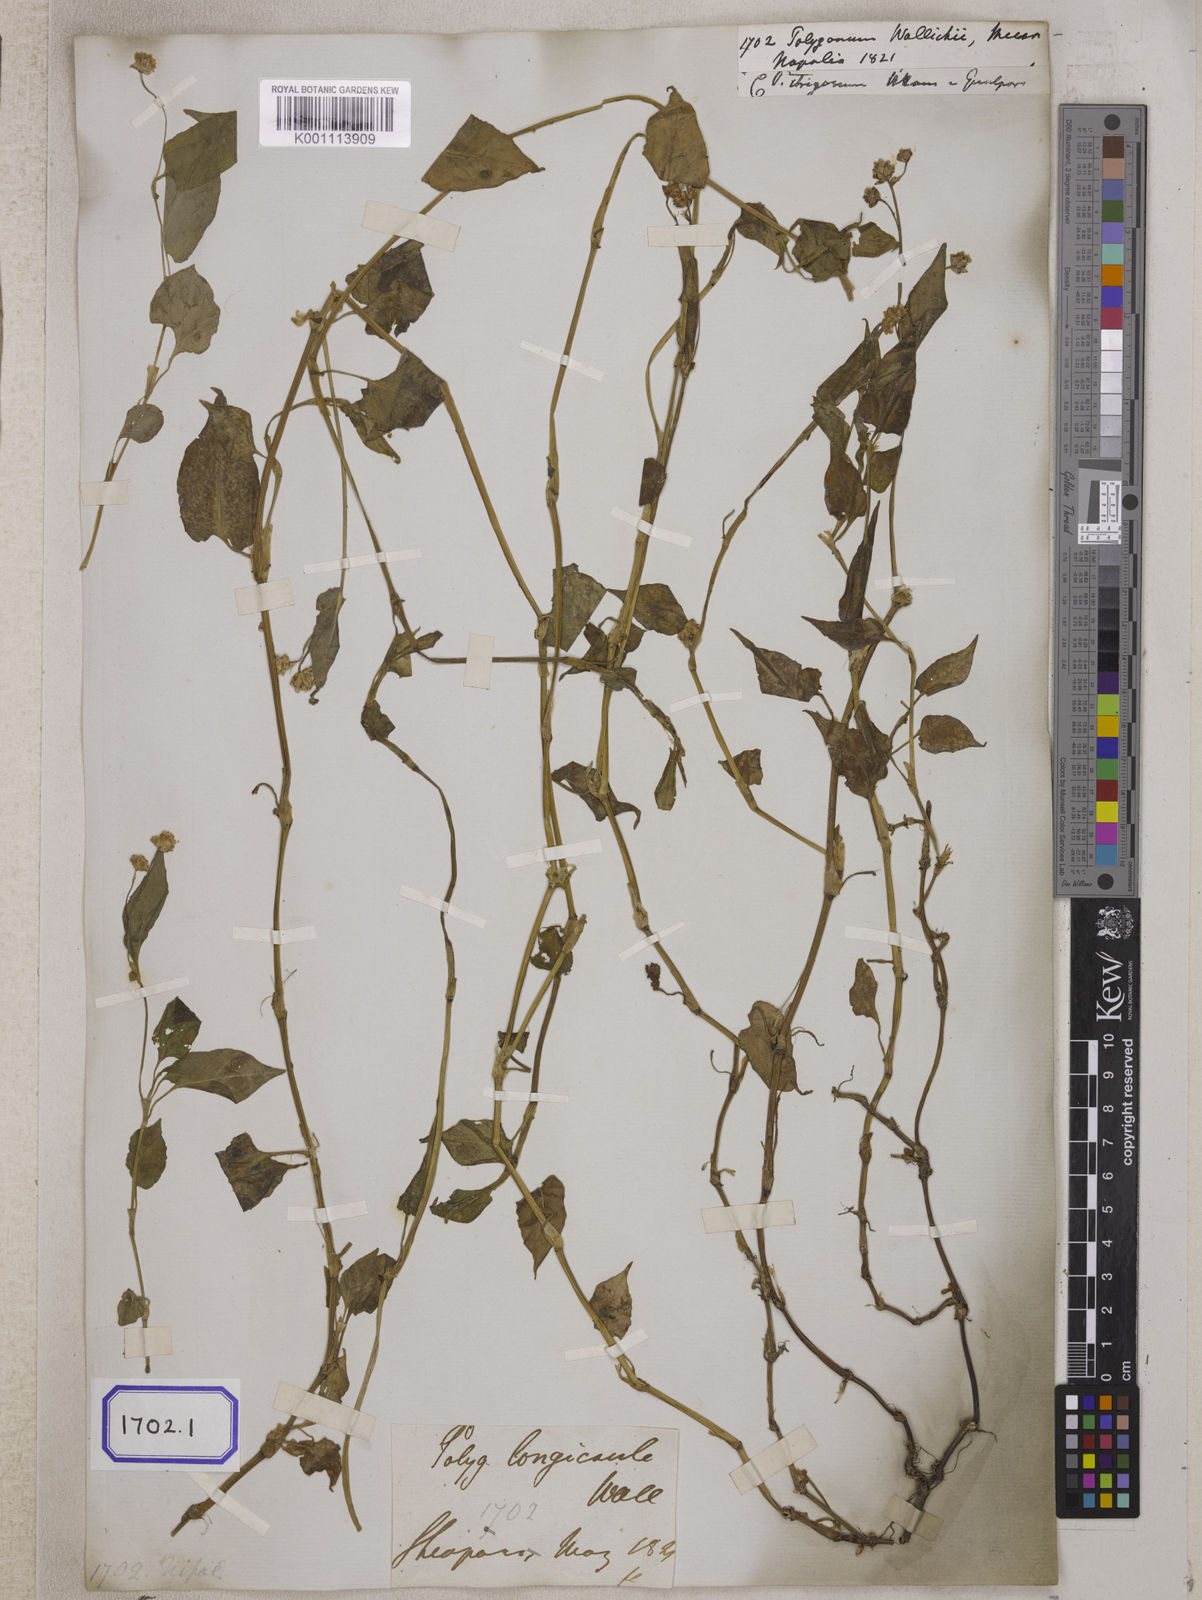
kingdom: Plantae
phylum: Tracheophyta
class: Magnoliopsida
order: Caryophyllales
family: Polygonaceae
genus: Persicaria
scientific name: Persicaria greuteriana
